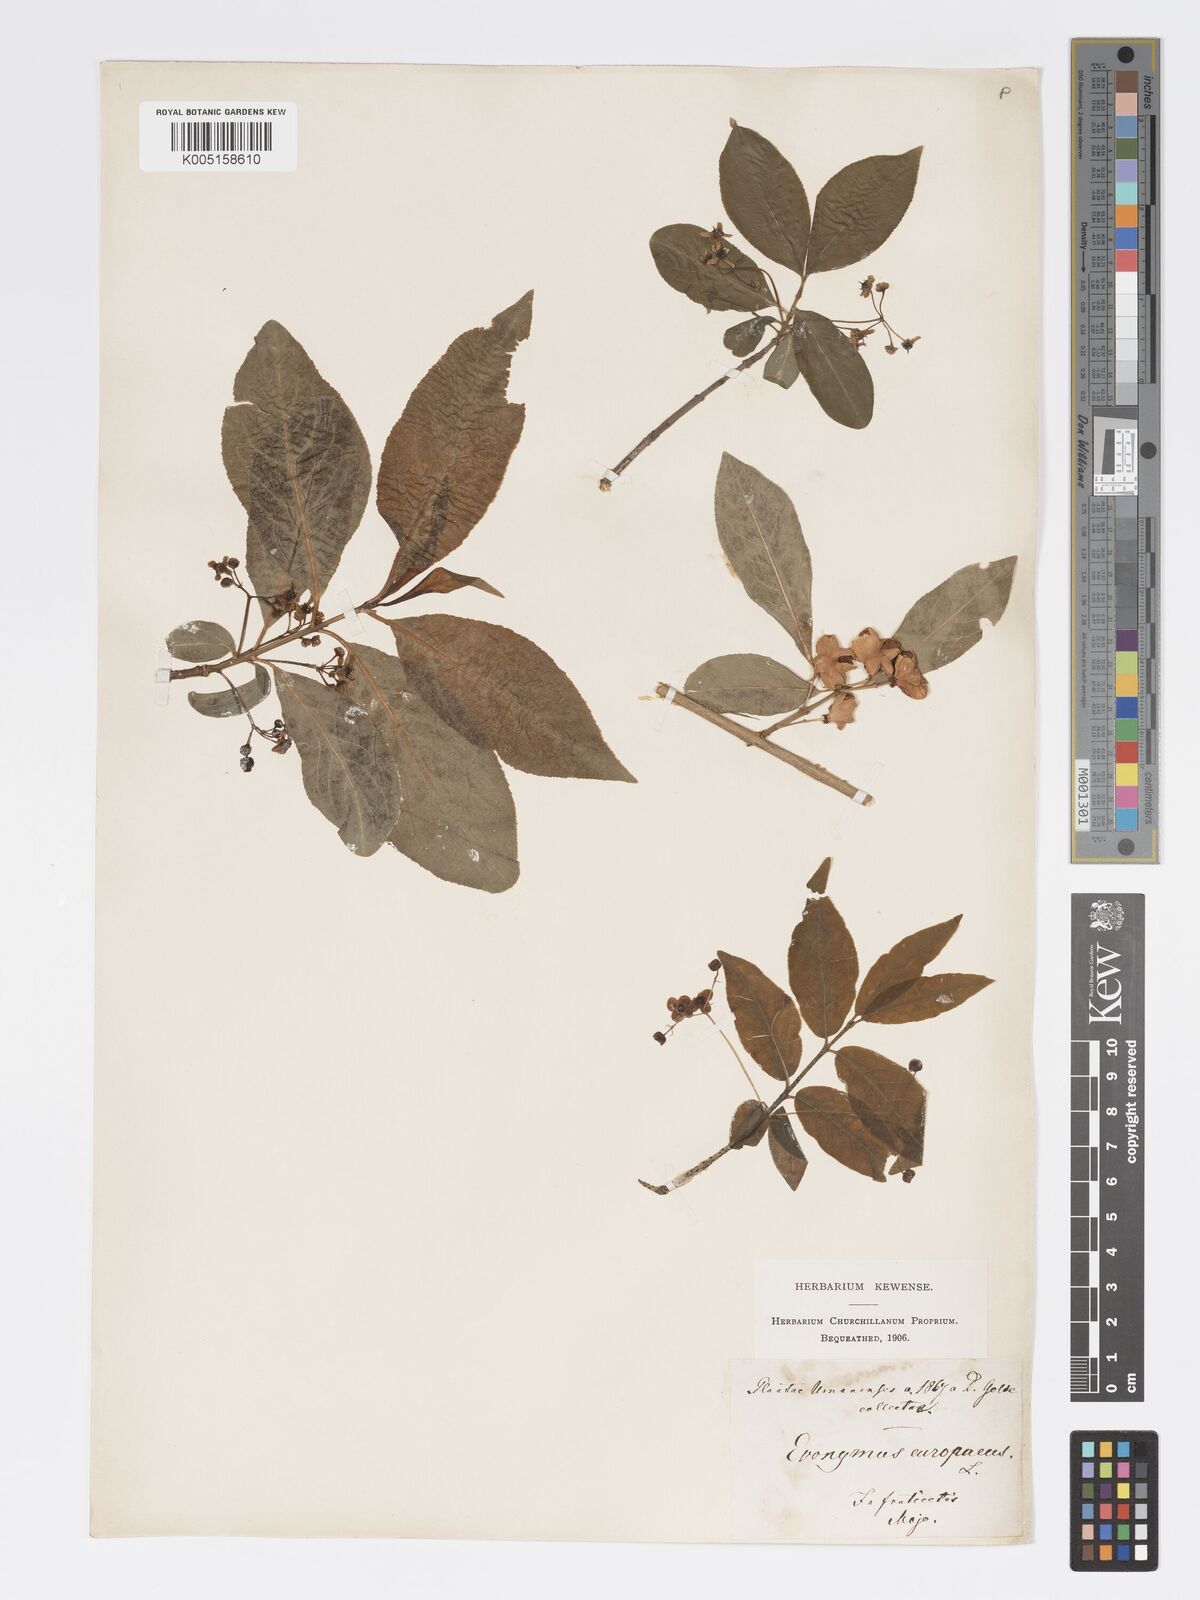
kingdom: Plantae
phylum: Tracheophyta
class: Magnoliopsida
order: Celastrales
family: Celastraceae
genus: Euonymus
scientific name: Euonymus europaeus
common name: Spindle
